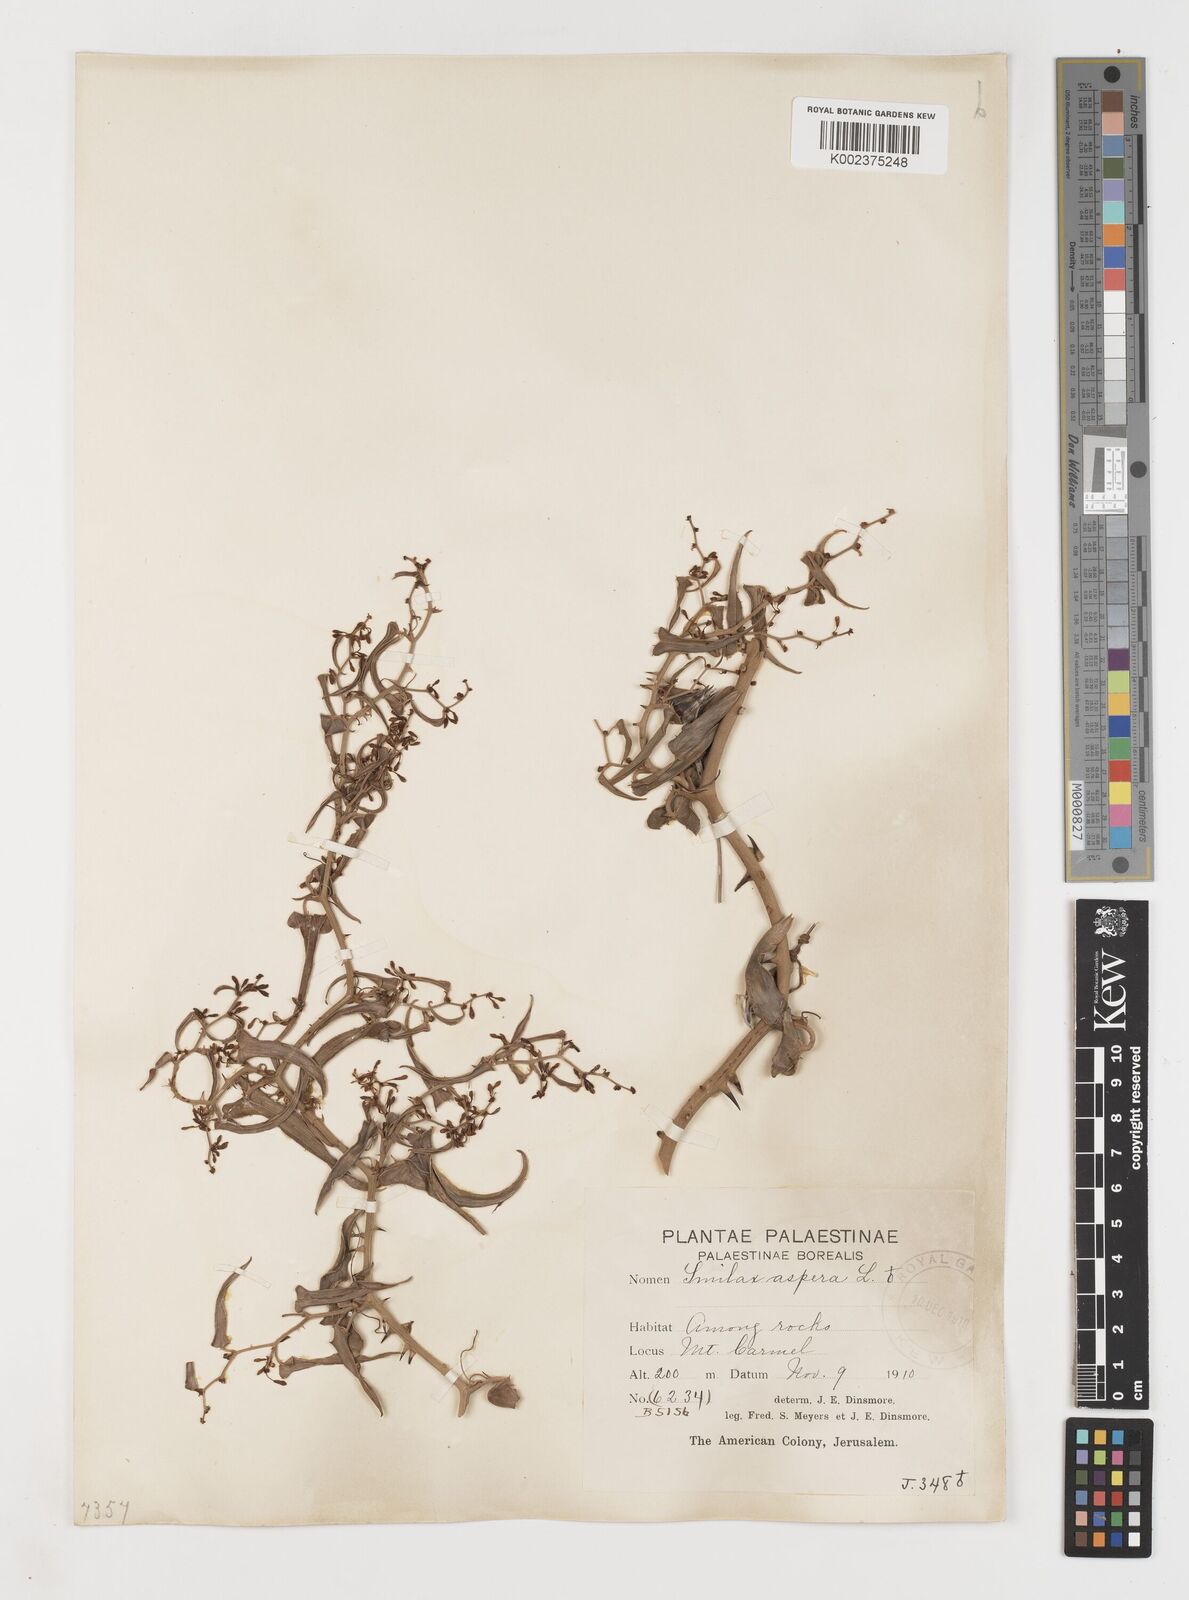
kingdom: Plantae
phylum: Tracheophyta
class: Liliopsida
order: Liliales
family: Smilacaceae
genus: Smilax
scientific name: Smilax aspera
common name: Common smilax
